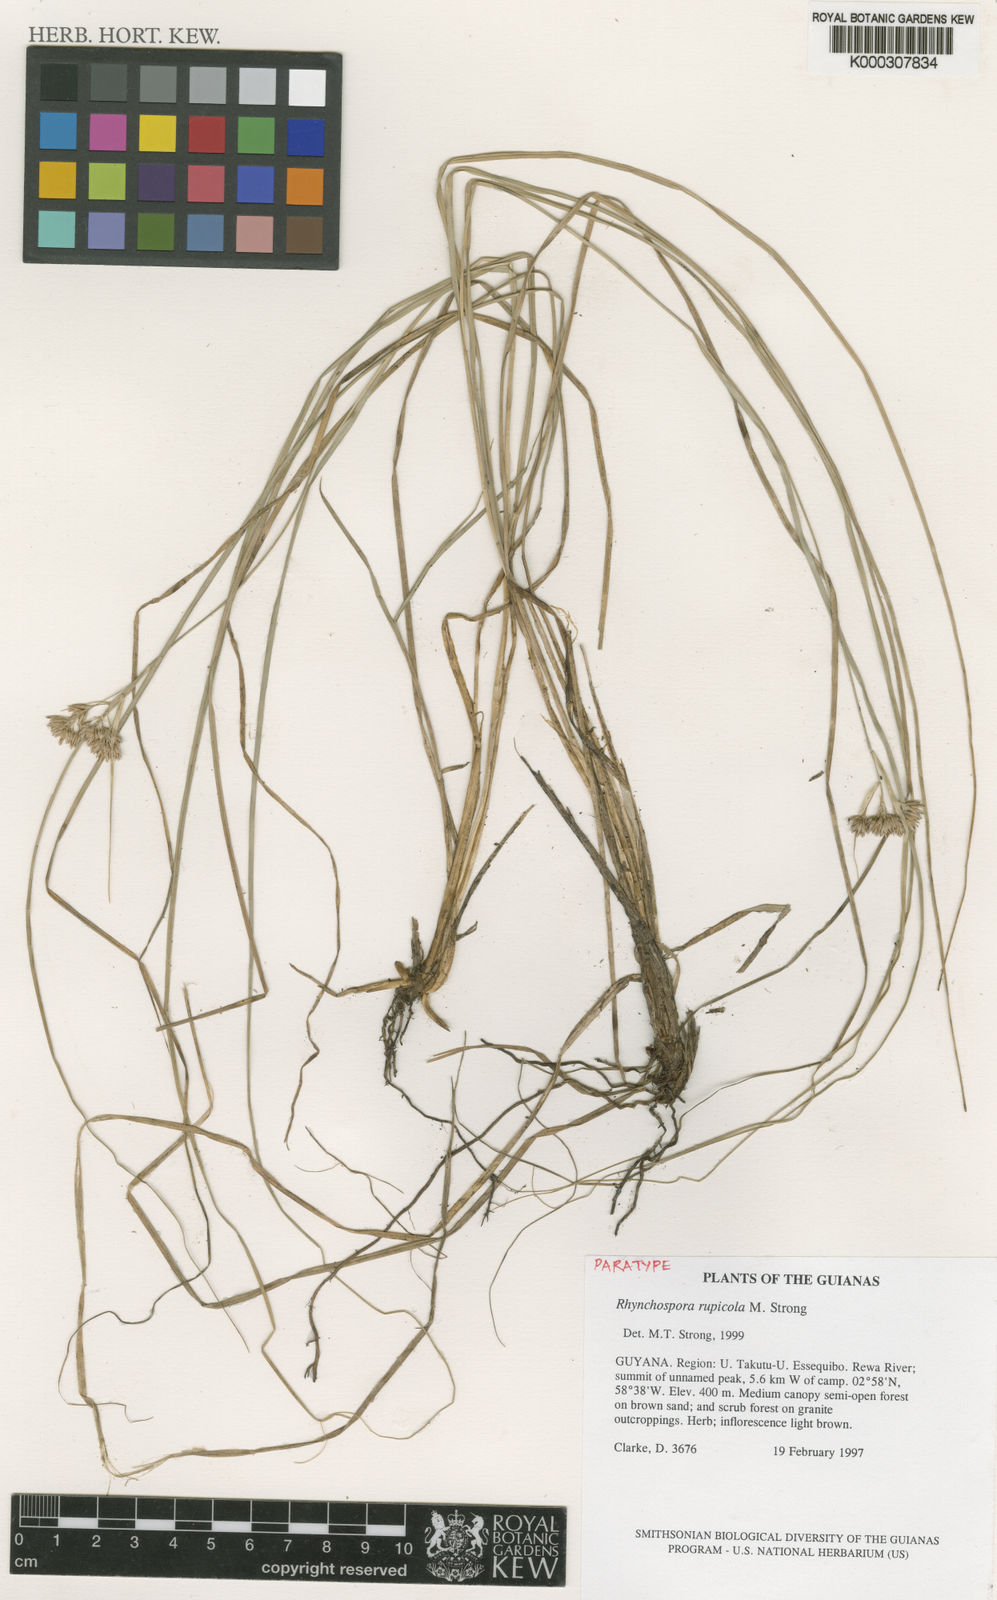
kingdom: Plantae
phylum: Tracheophyta
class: Liliopsida
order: Poales
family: Cyperaceae
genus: Rhynchospora
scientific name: Rhynchospora rupicola
